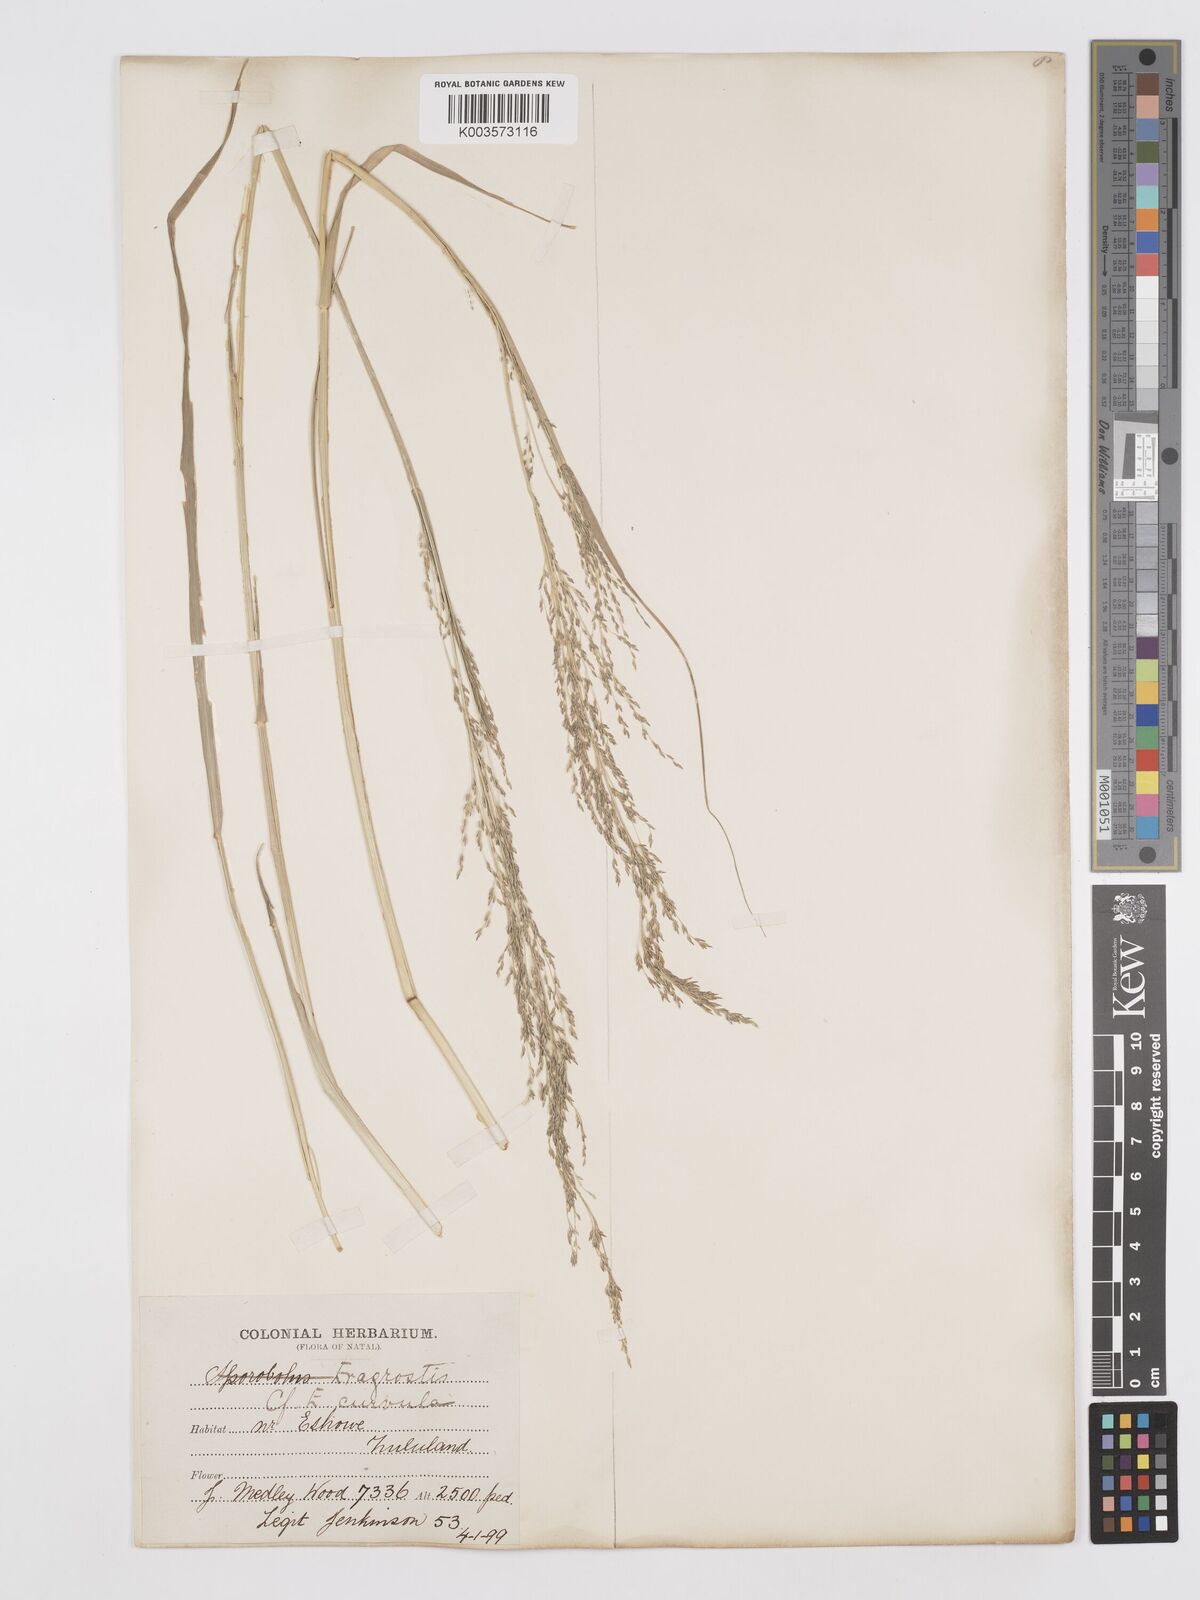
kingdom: Plantae
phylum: Tracheophyta
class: Liliopsida
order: Poales
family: Poaceae
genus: Eragrostis
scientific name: Eragrostis curvula
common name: African love-grass
